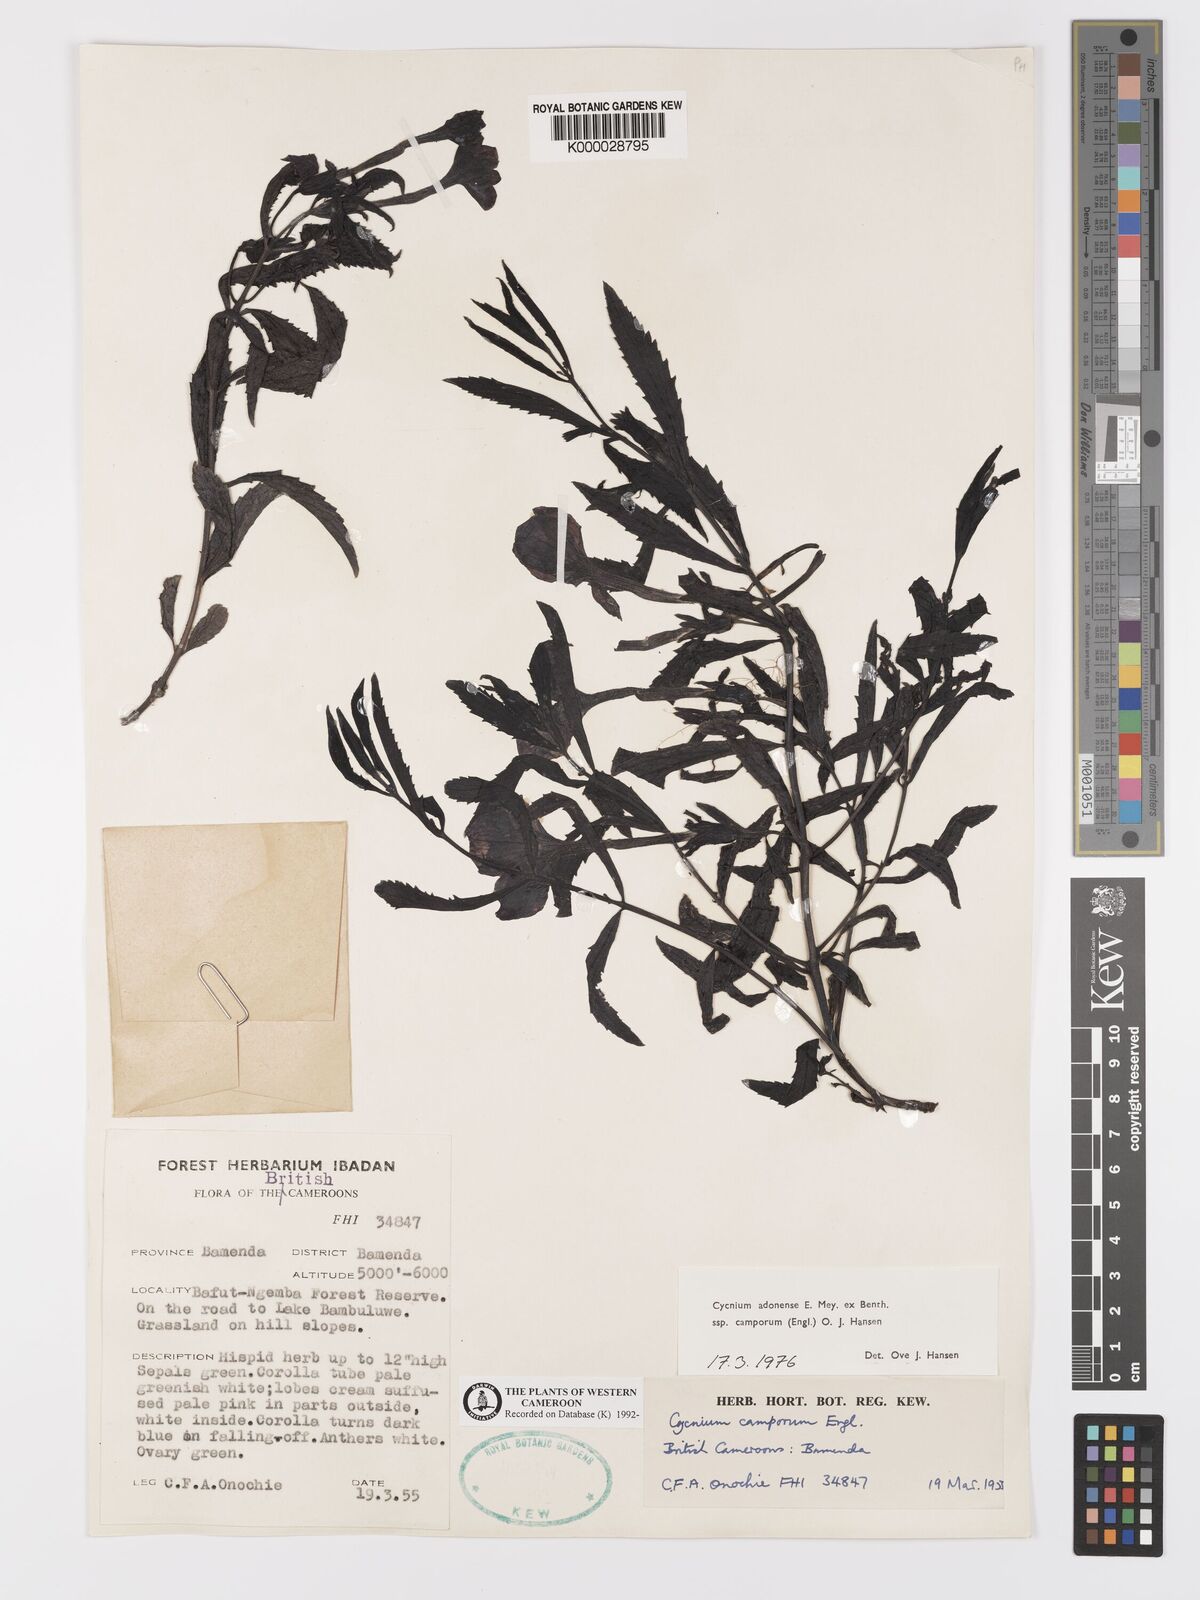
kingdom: Plantae
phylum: Tracheophyta
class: Magnoliopsida
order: Lamiales
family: Orobanchaceae
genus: Cycnium
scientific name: Cycnium adoense
